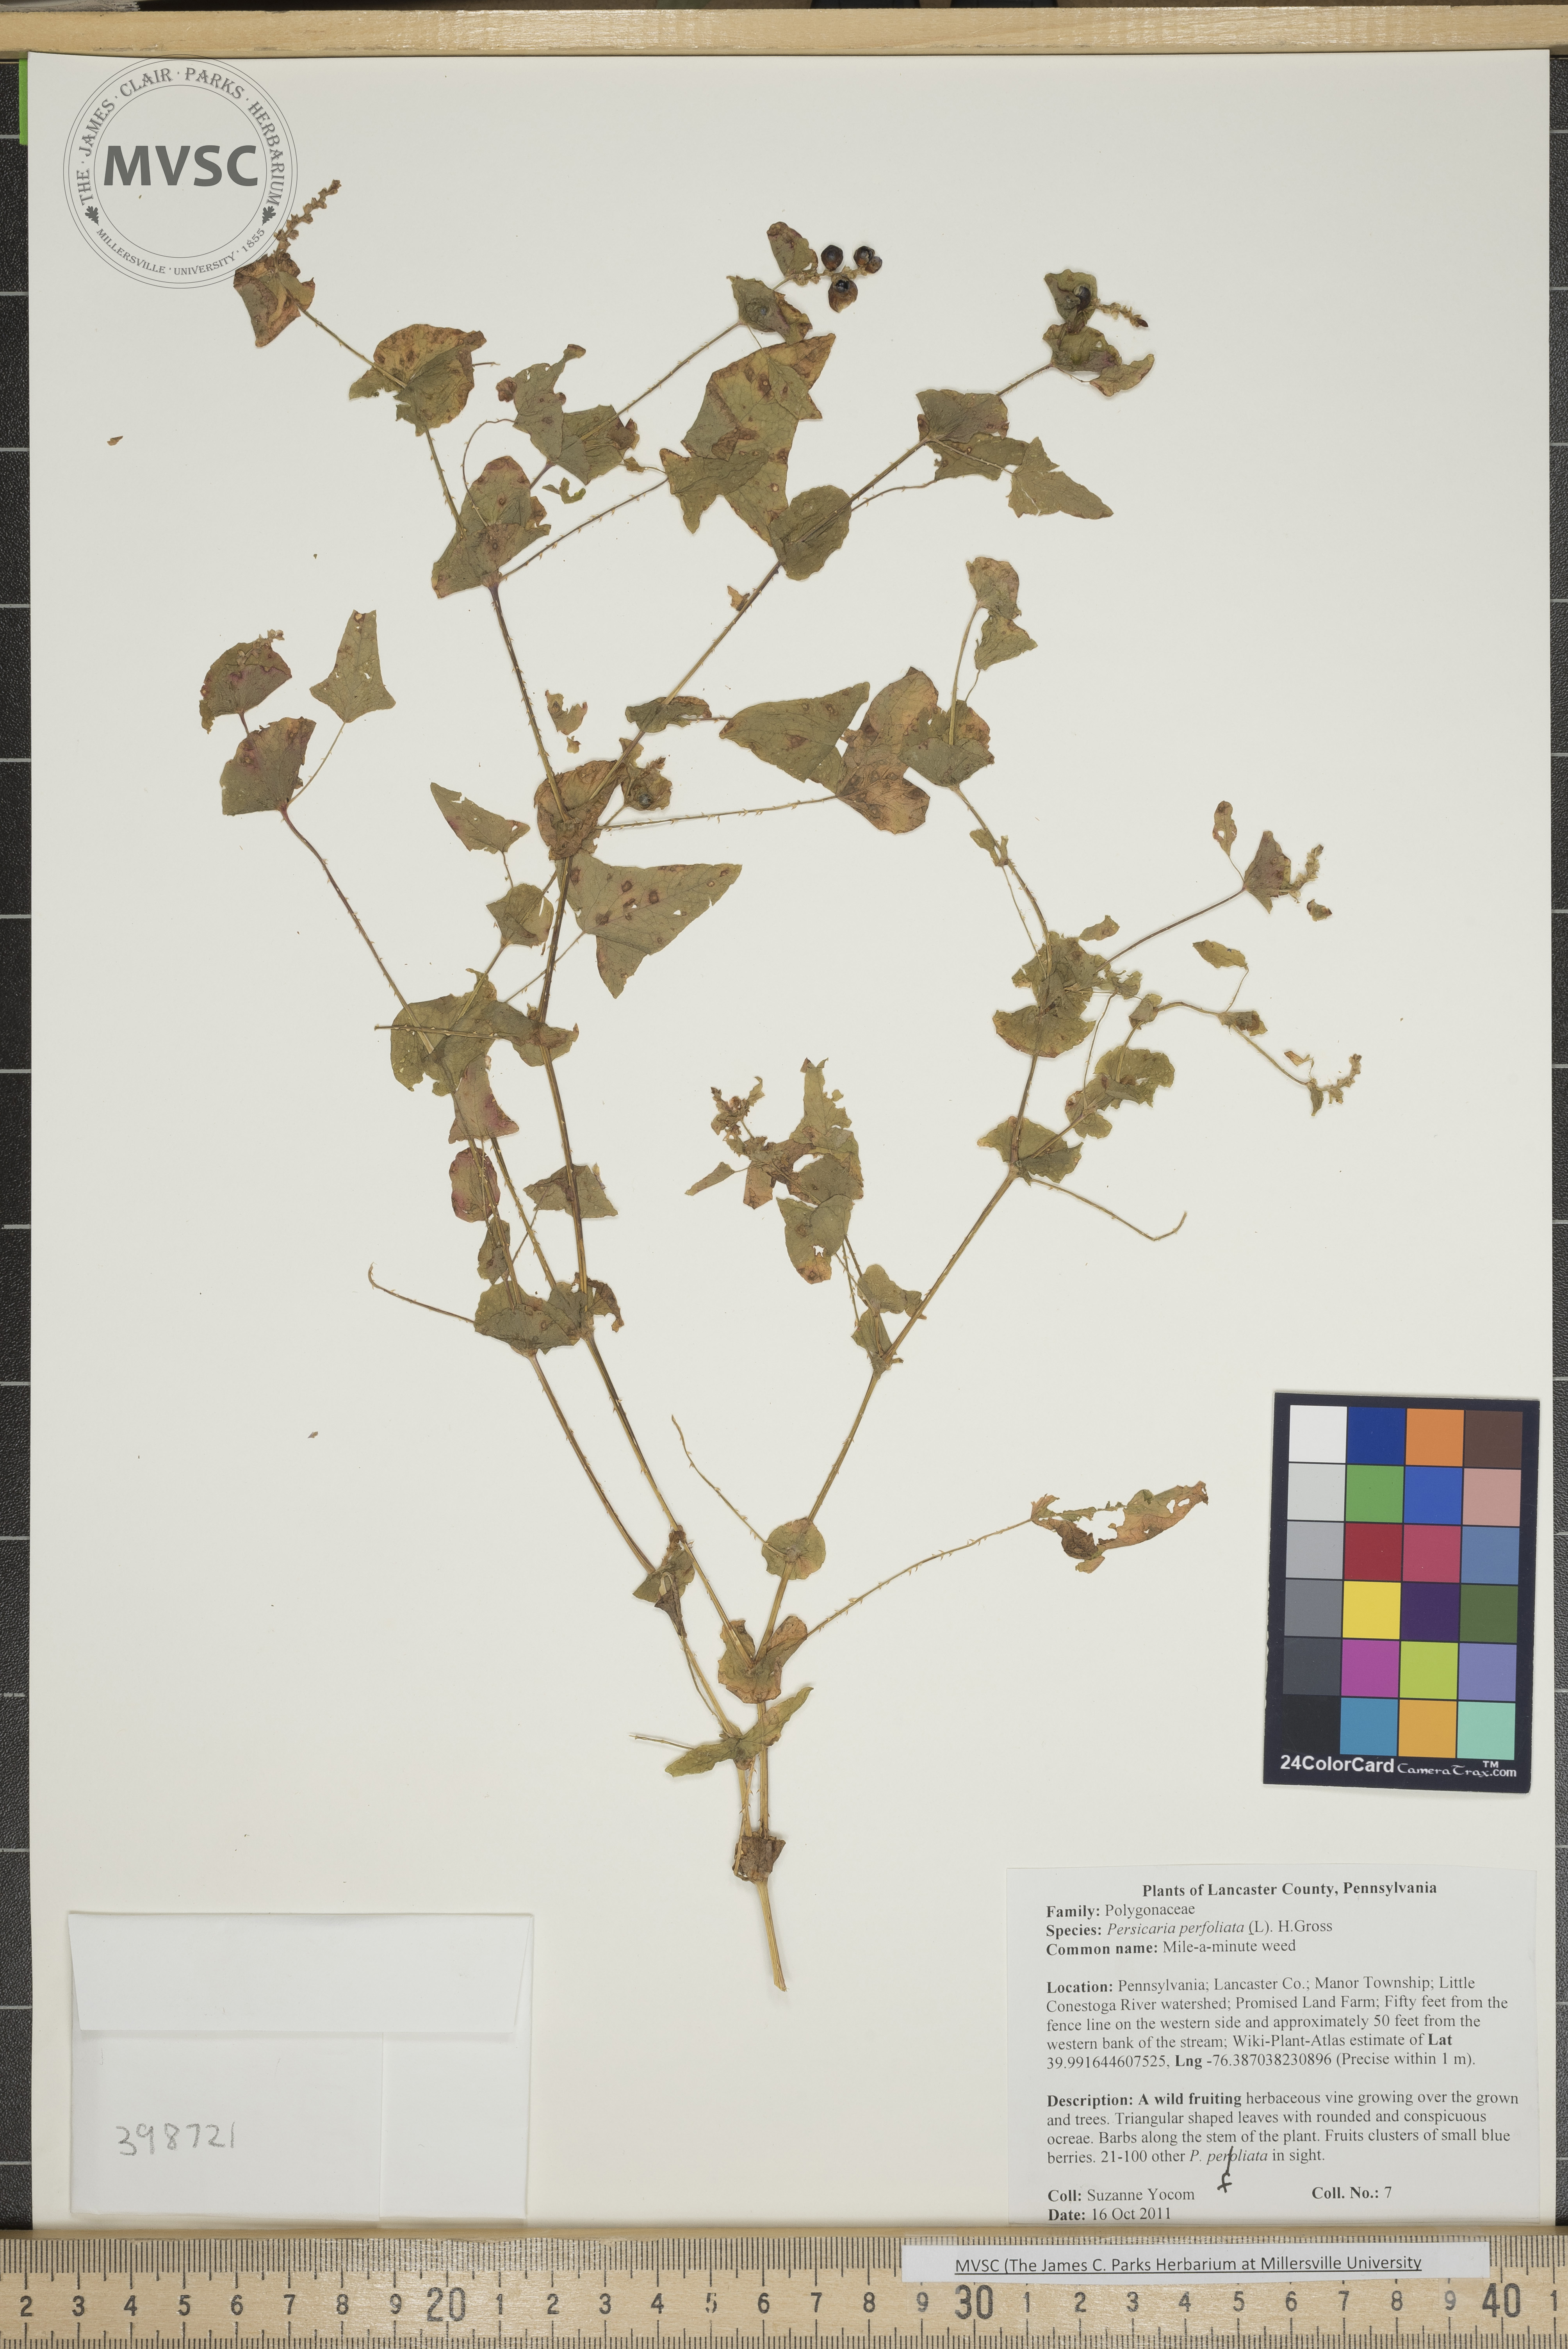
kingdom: Plantae
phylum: Tracheophyta
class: Magnoliopsida
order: Caryophyllales
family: Polygonaceae
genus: Persicaria
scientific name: Persicaria perfoliata
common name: Mile-a-minute weed
